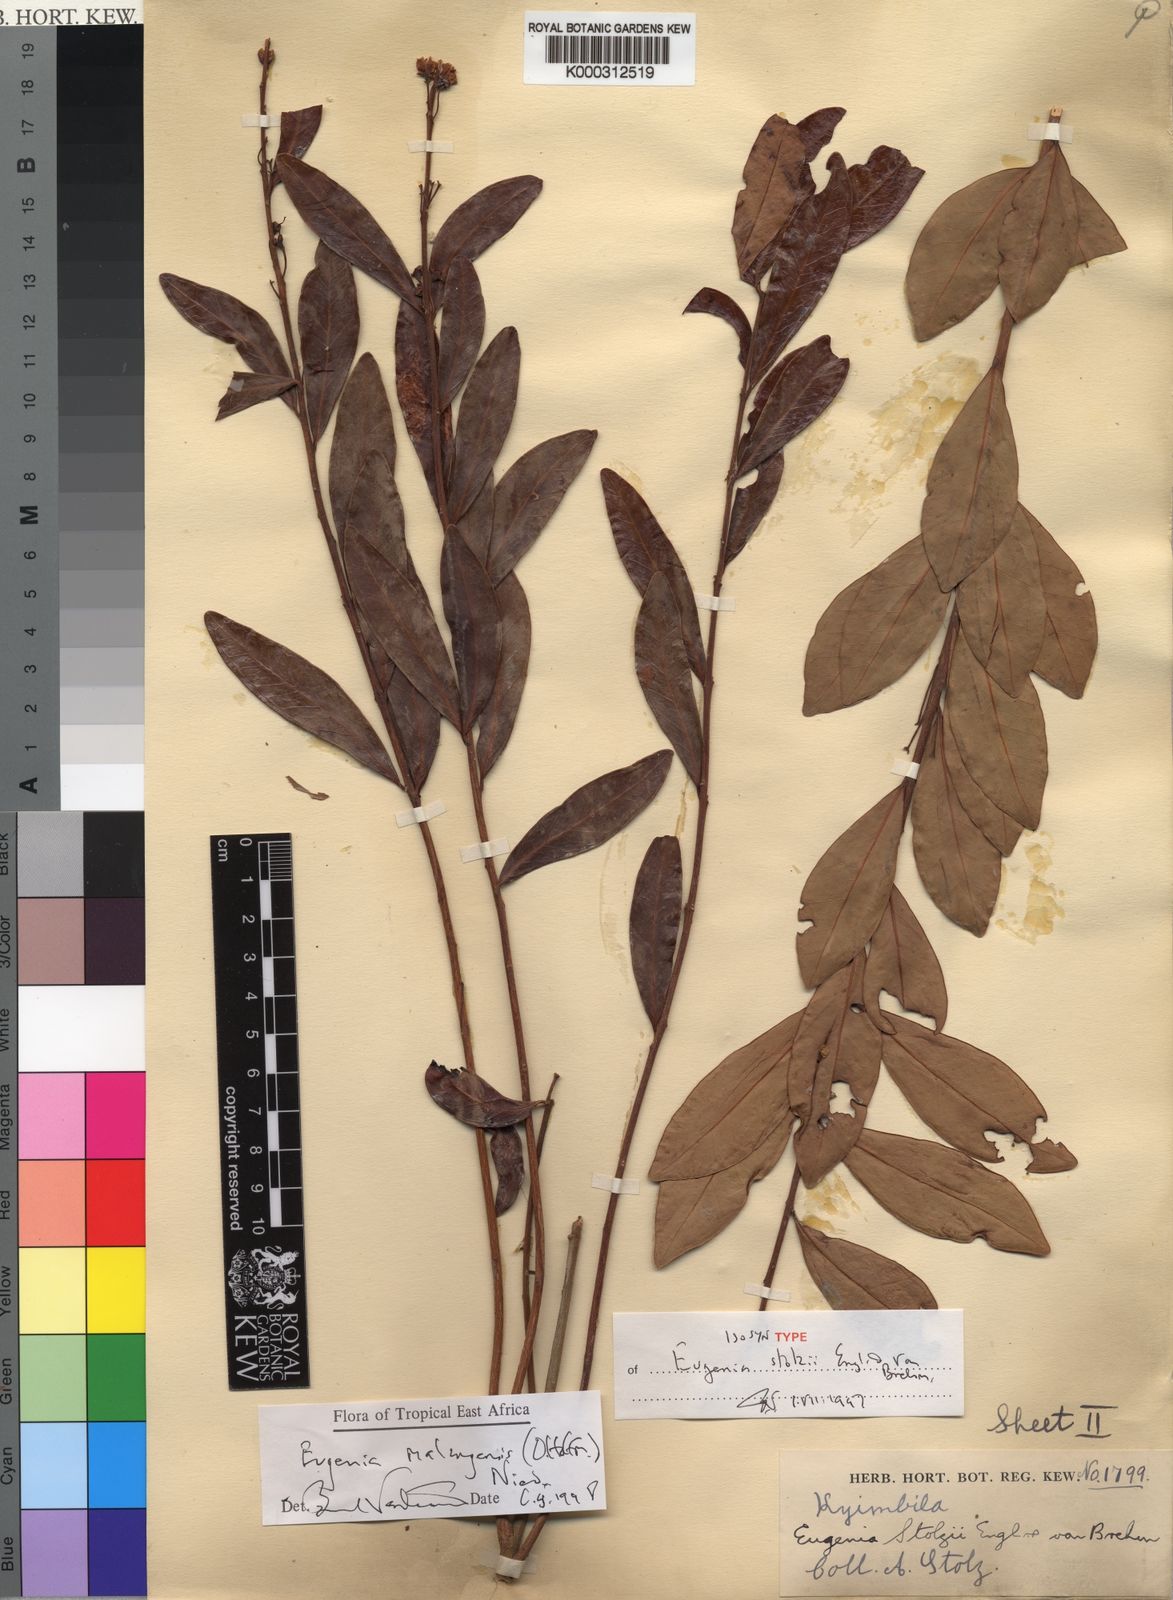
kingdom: Plantae
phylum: Tracheophyta
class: Magnoliopsida
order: Myrtales
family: Myrtaceae
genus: Eugenia
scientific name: Eugenia malangensis
